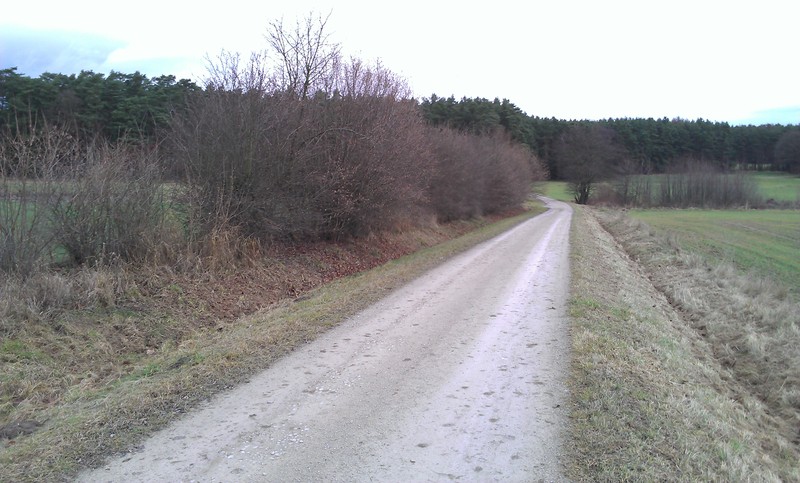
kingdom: Fungi
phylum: Ascomycota
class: Lecanoromycetes
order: Lecanorales
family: Parmeliaceae
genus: Parmelia
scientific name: Parmelia sulcata
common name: Netted shield lichen
